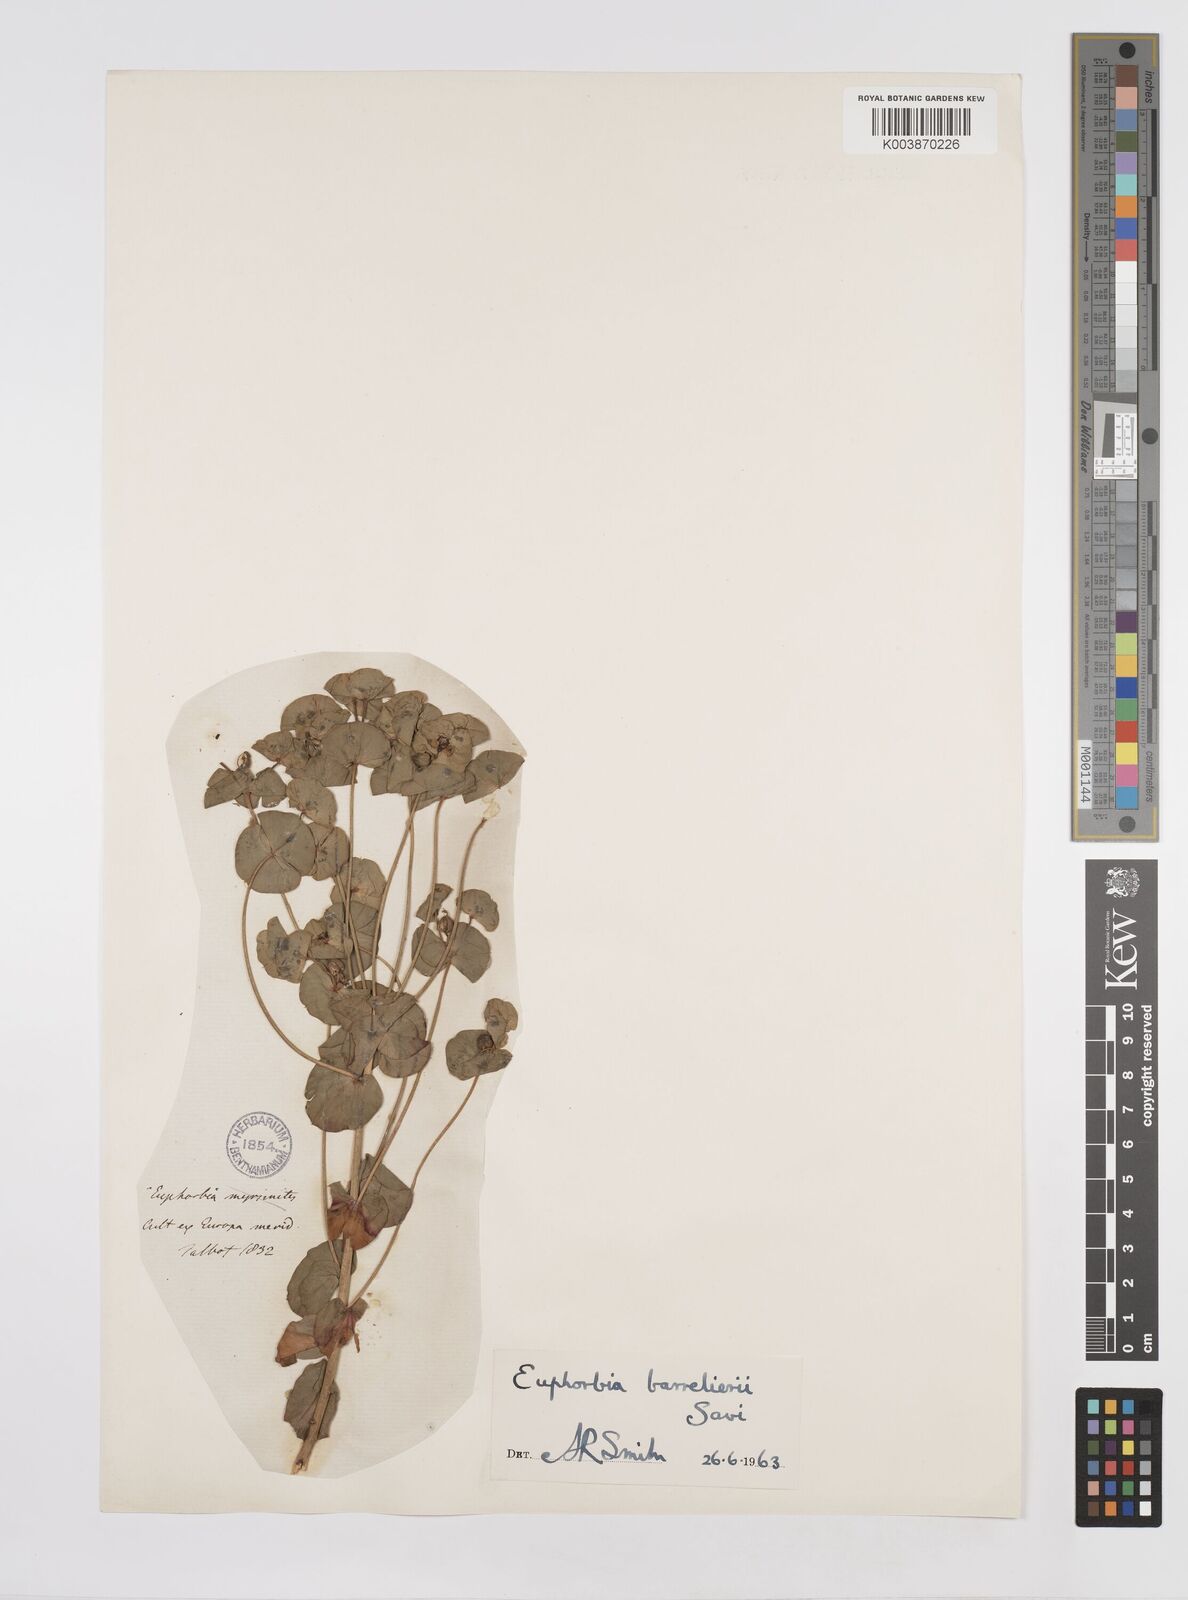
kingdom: Plantae
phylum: Tracheophyta
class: Magnoliopsida
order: Malpighiales
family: Euphorbiaceae
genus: Euphorbia
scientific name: Euphorbia barrelieri
